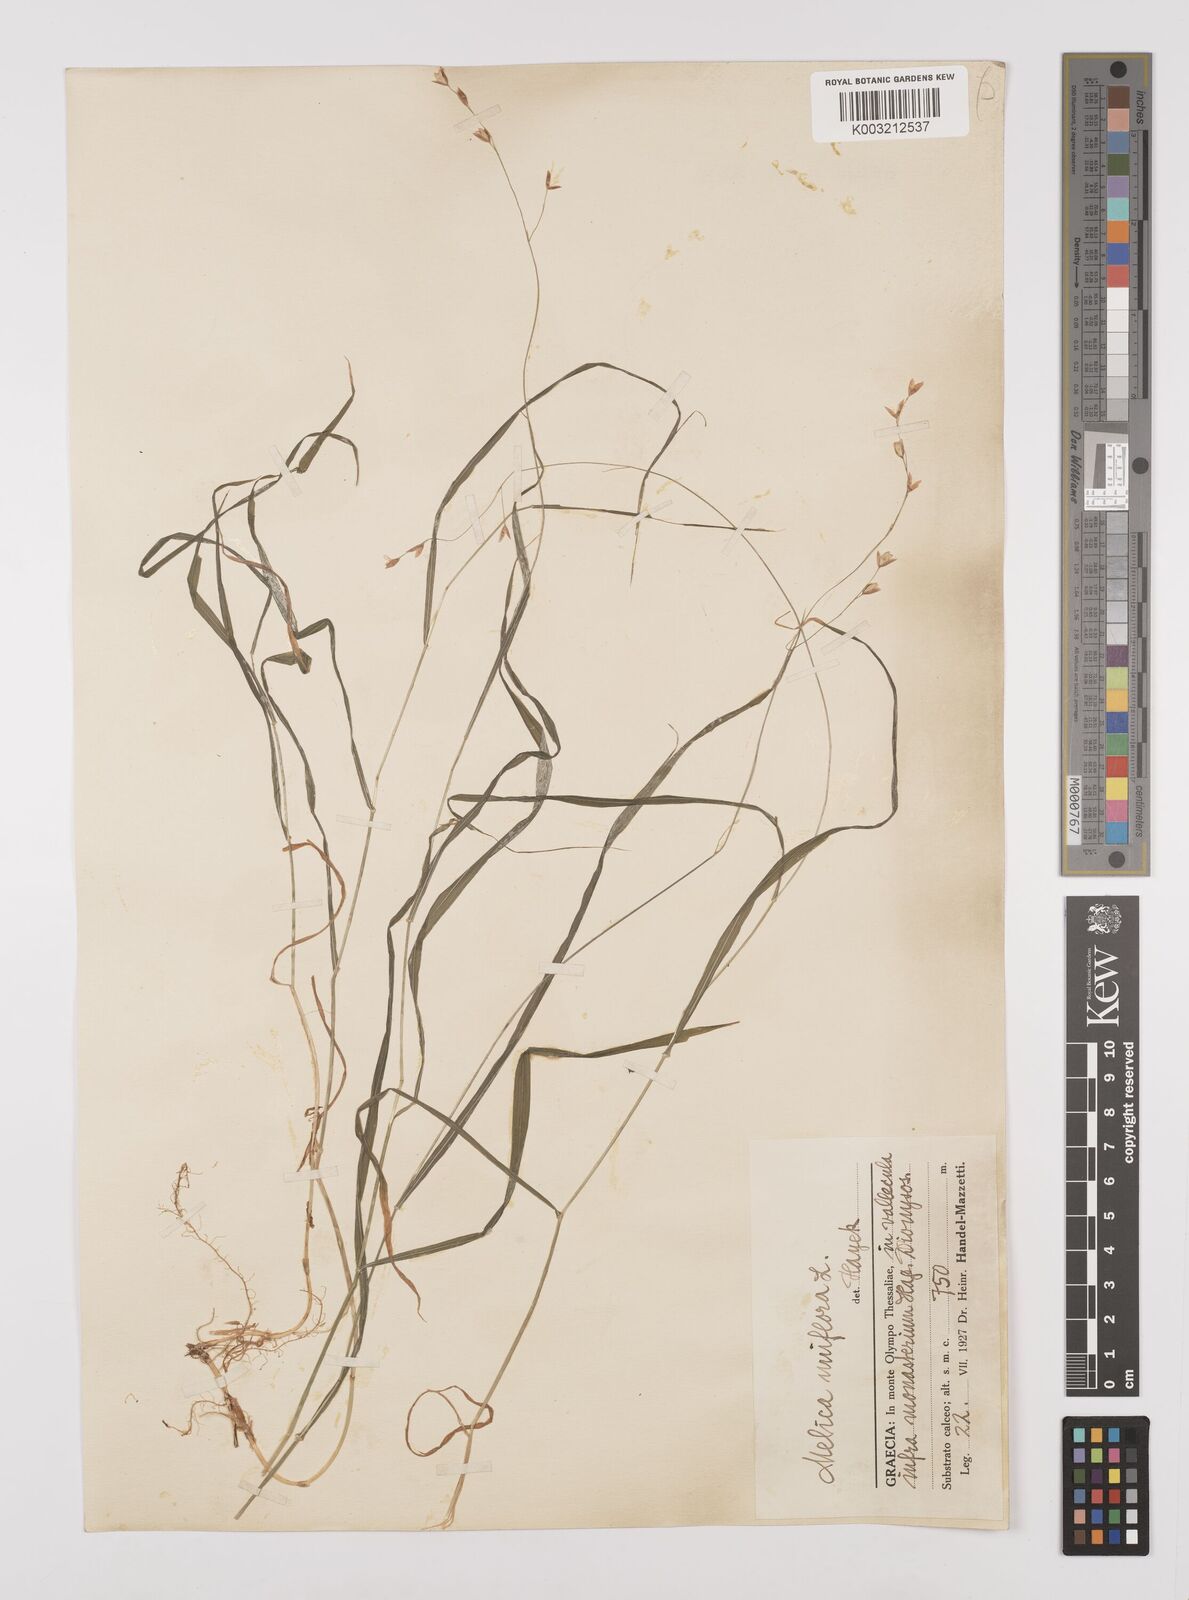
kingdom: Plantae
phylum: Tracheophyta
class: Liliopsida
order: Poales
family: Poaceae
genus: Melica
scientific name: Melica uniflora
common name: Wood melick
